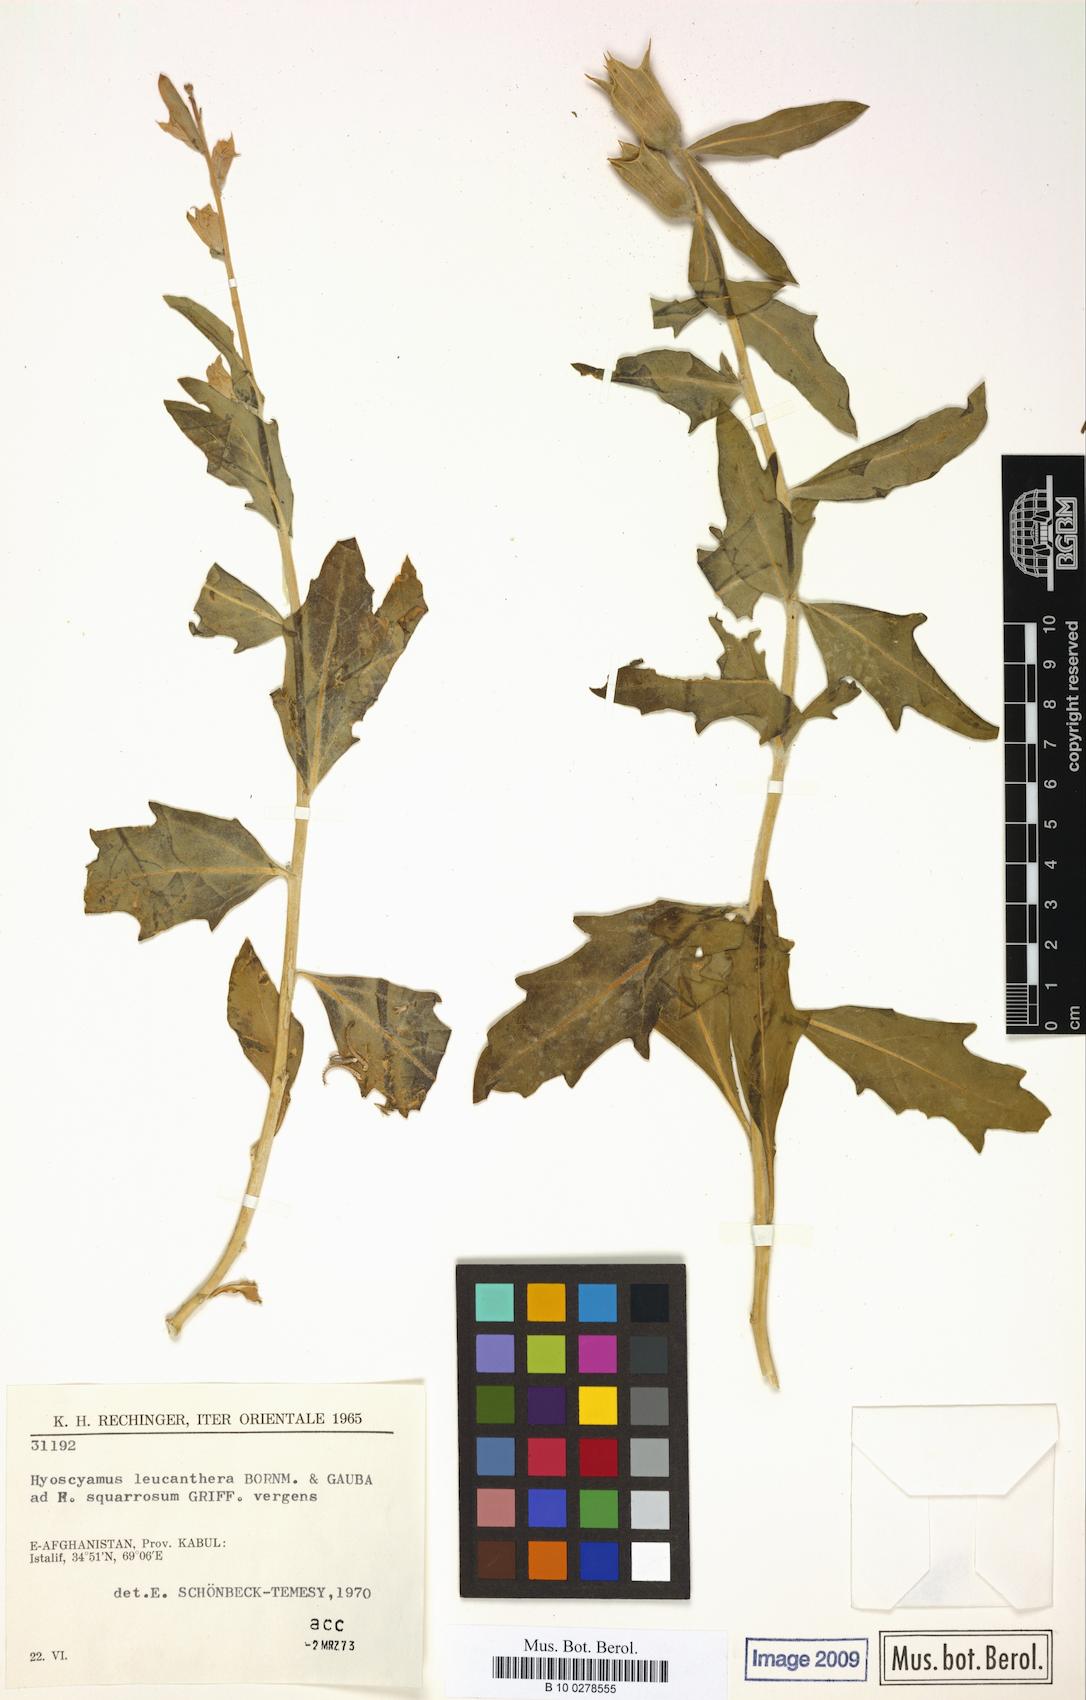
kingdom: Plantae
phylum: Tracheophyta
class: Magnoliopsida
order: Solanales
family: Solanaceae
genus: Hyoscyamus
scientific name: Hyoscyamus leucanthera
